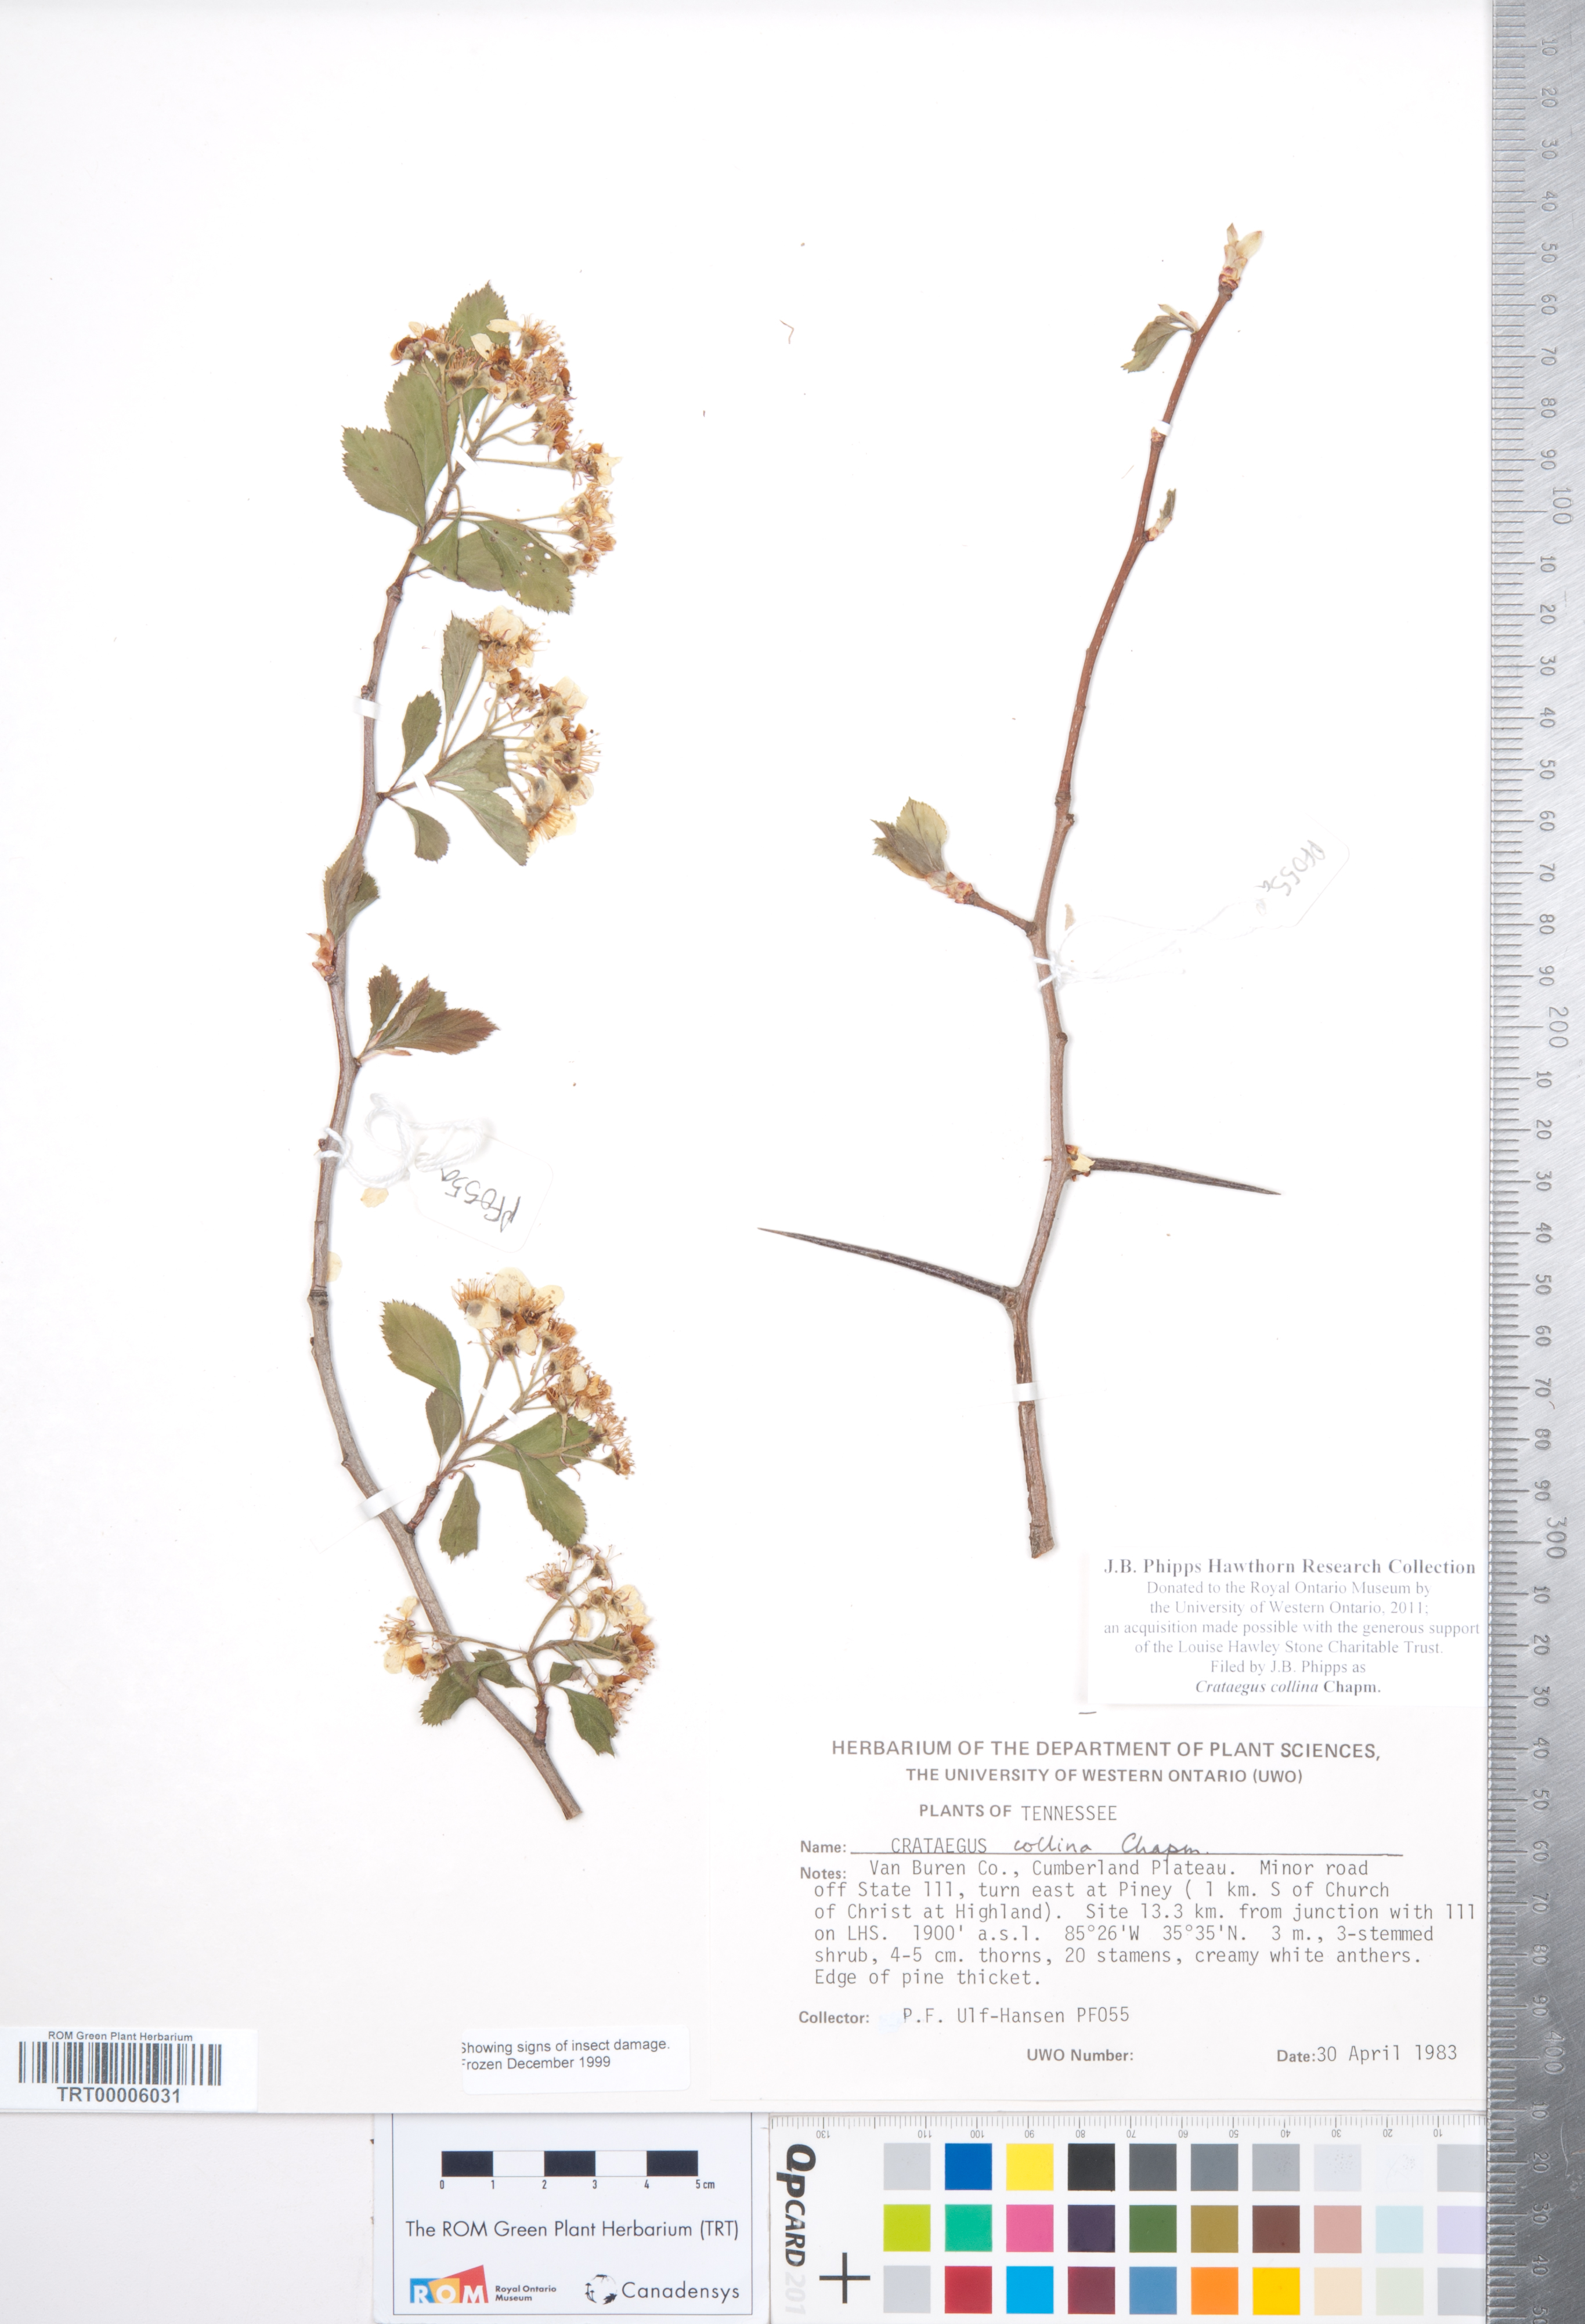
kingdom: Plantae
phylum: Tracheophyta
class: Magnoliopsida
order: Rosales
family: Rosaceae
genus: Crataegus
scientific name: Crataegus collina
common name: Hillside hawthorn
